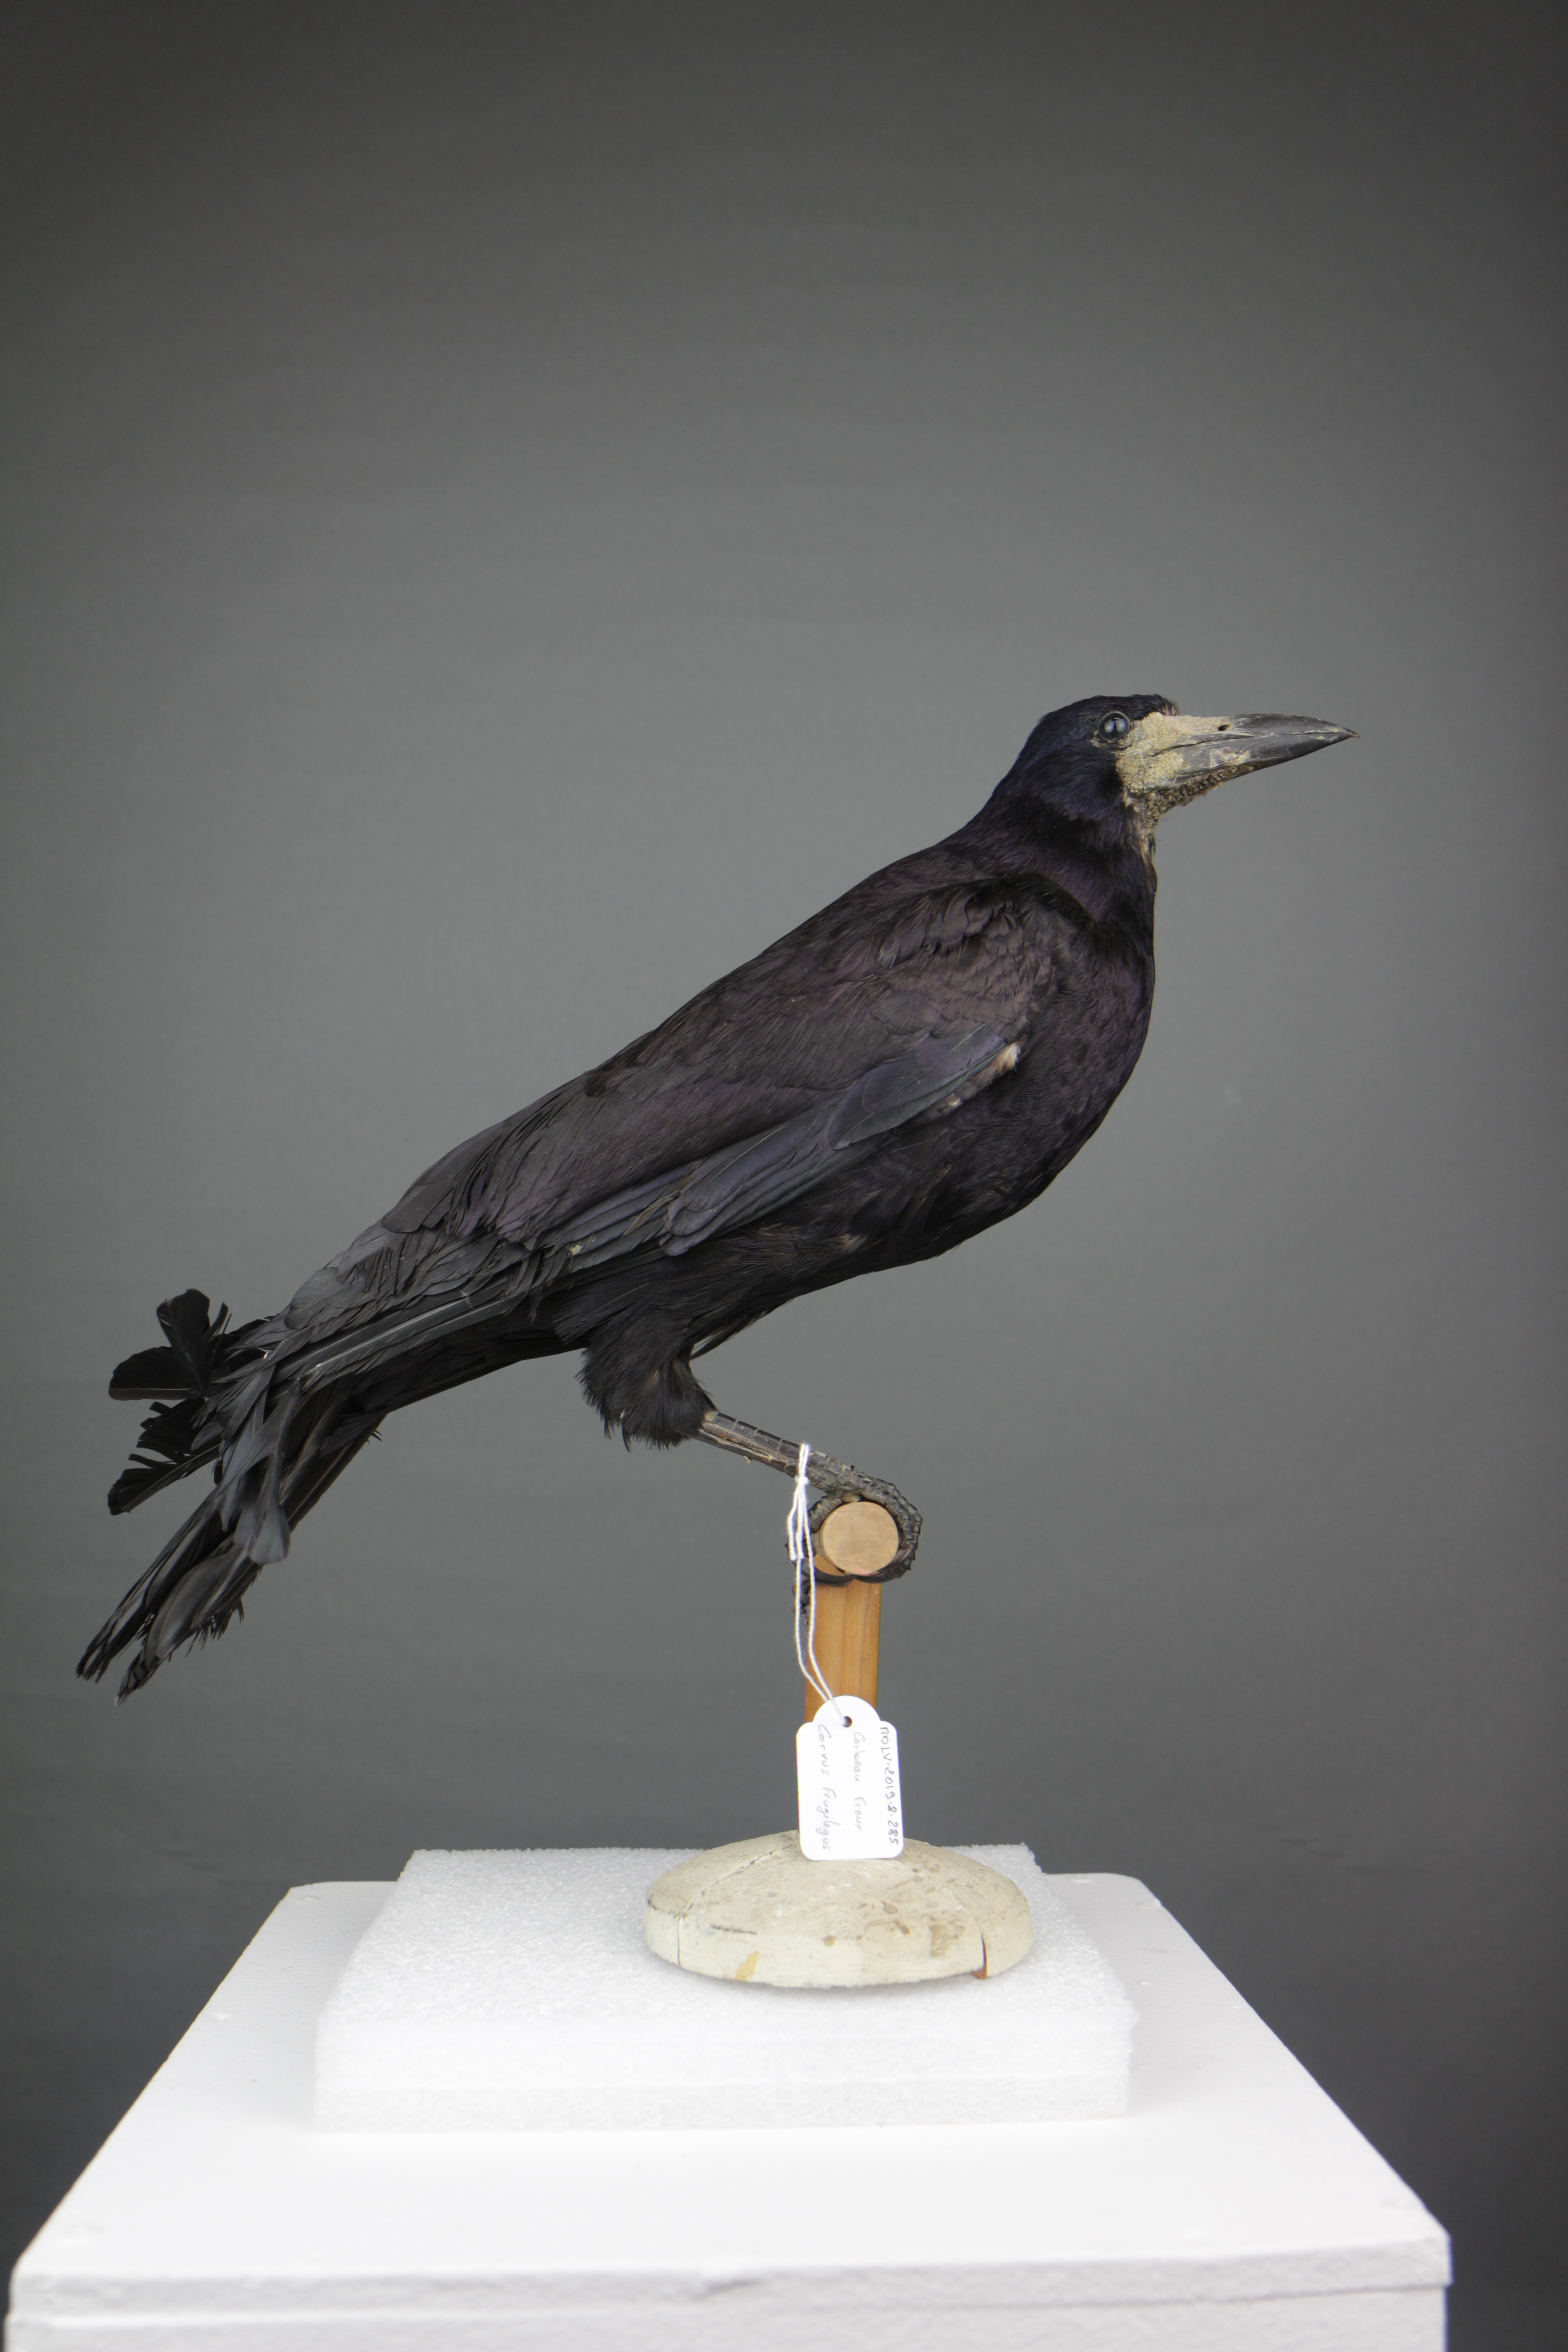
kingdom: Animalia
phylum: Chordata
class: Aves
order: Passeriformes
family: Corvidae
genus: Corvus
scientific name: Corvus frugilegus
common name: Rook
